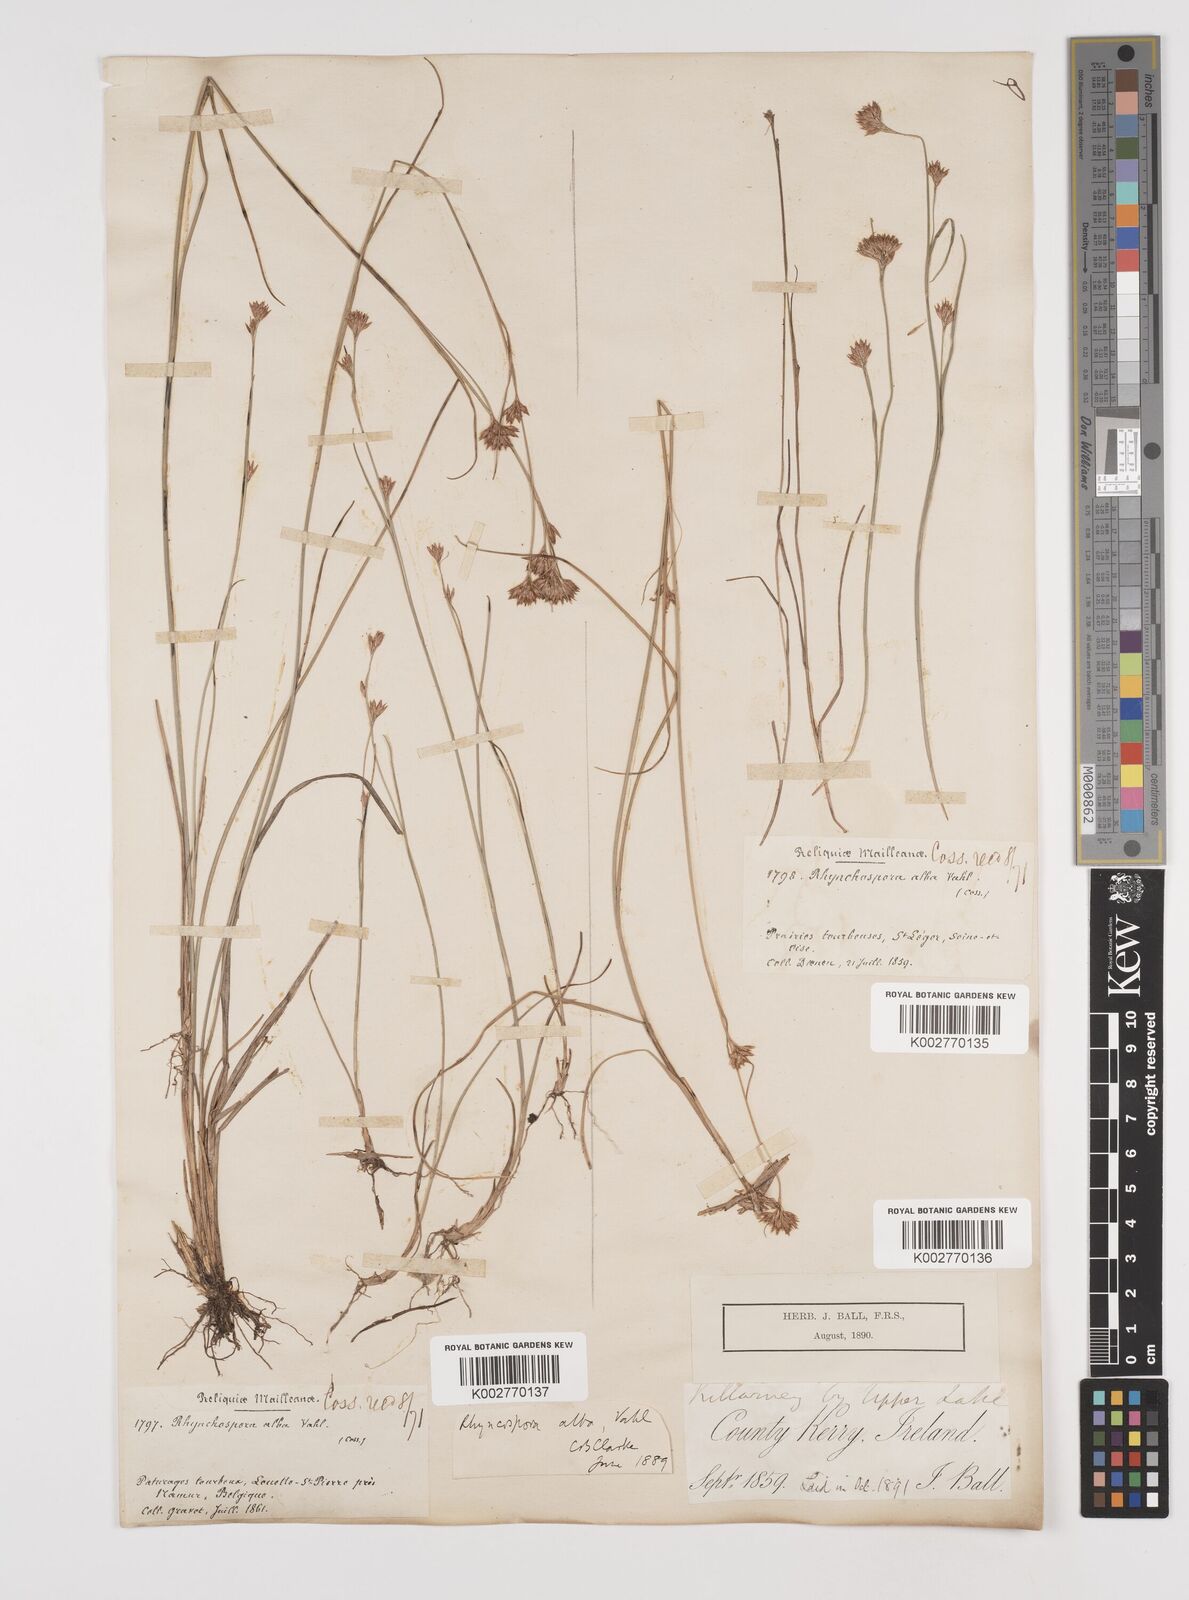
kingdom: Plantae
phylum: Tracheophyta
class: Liliopsida
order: Poales
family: Cyperaceae
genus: Rhynchospora
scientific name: Rhynchospora alba
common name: White beak-sedge
